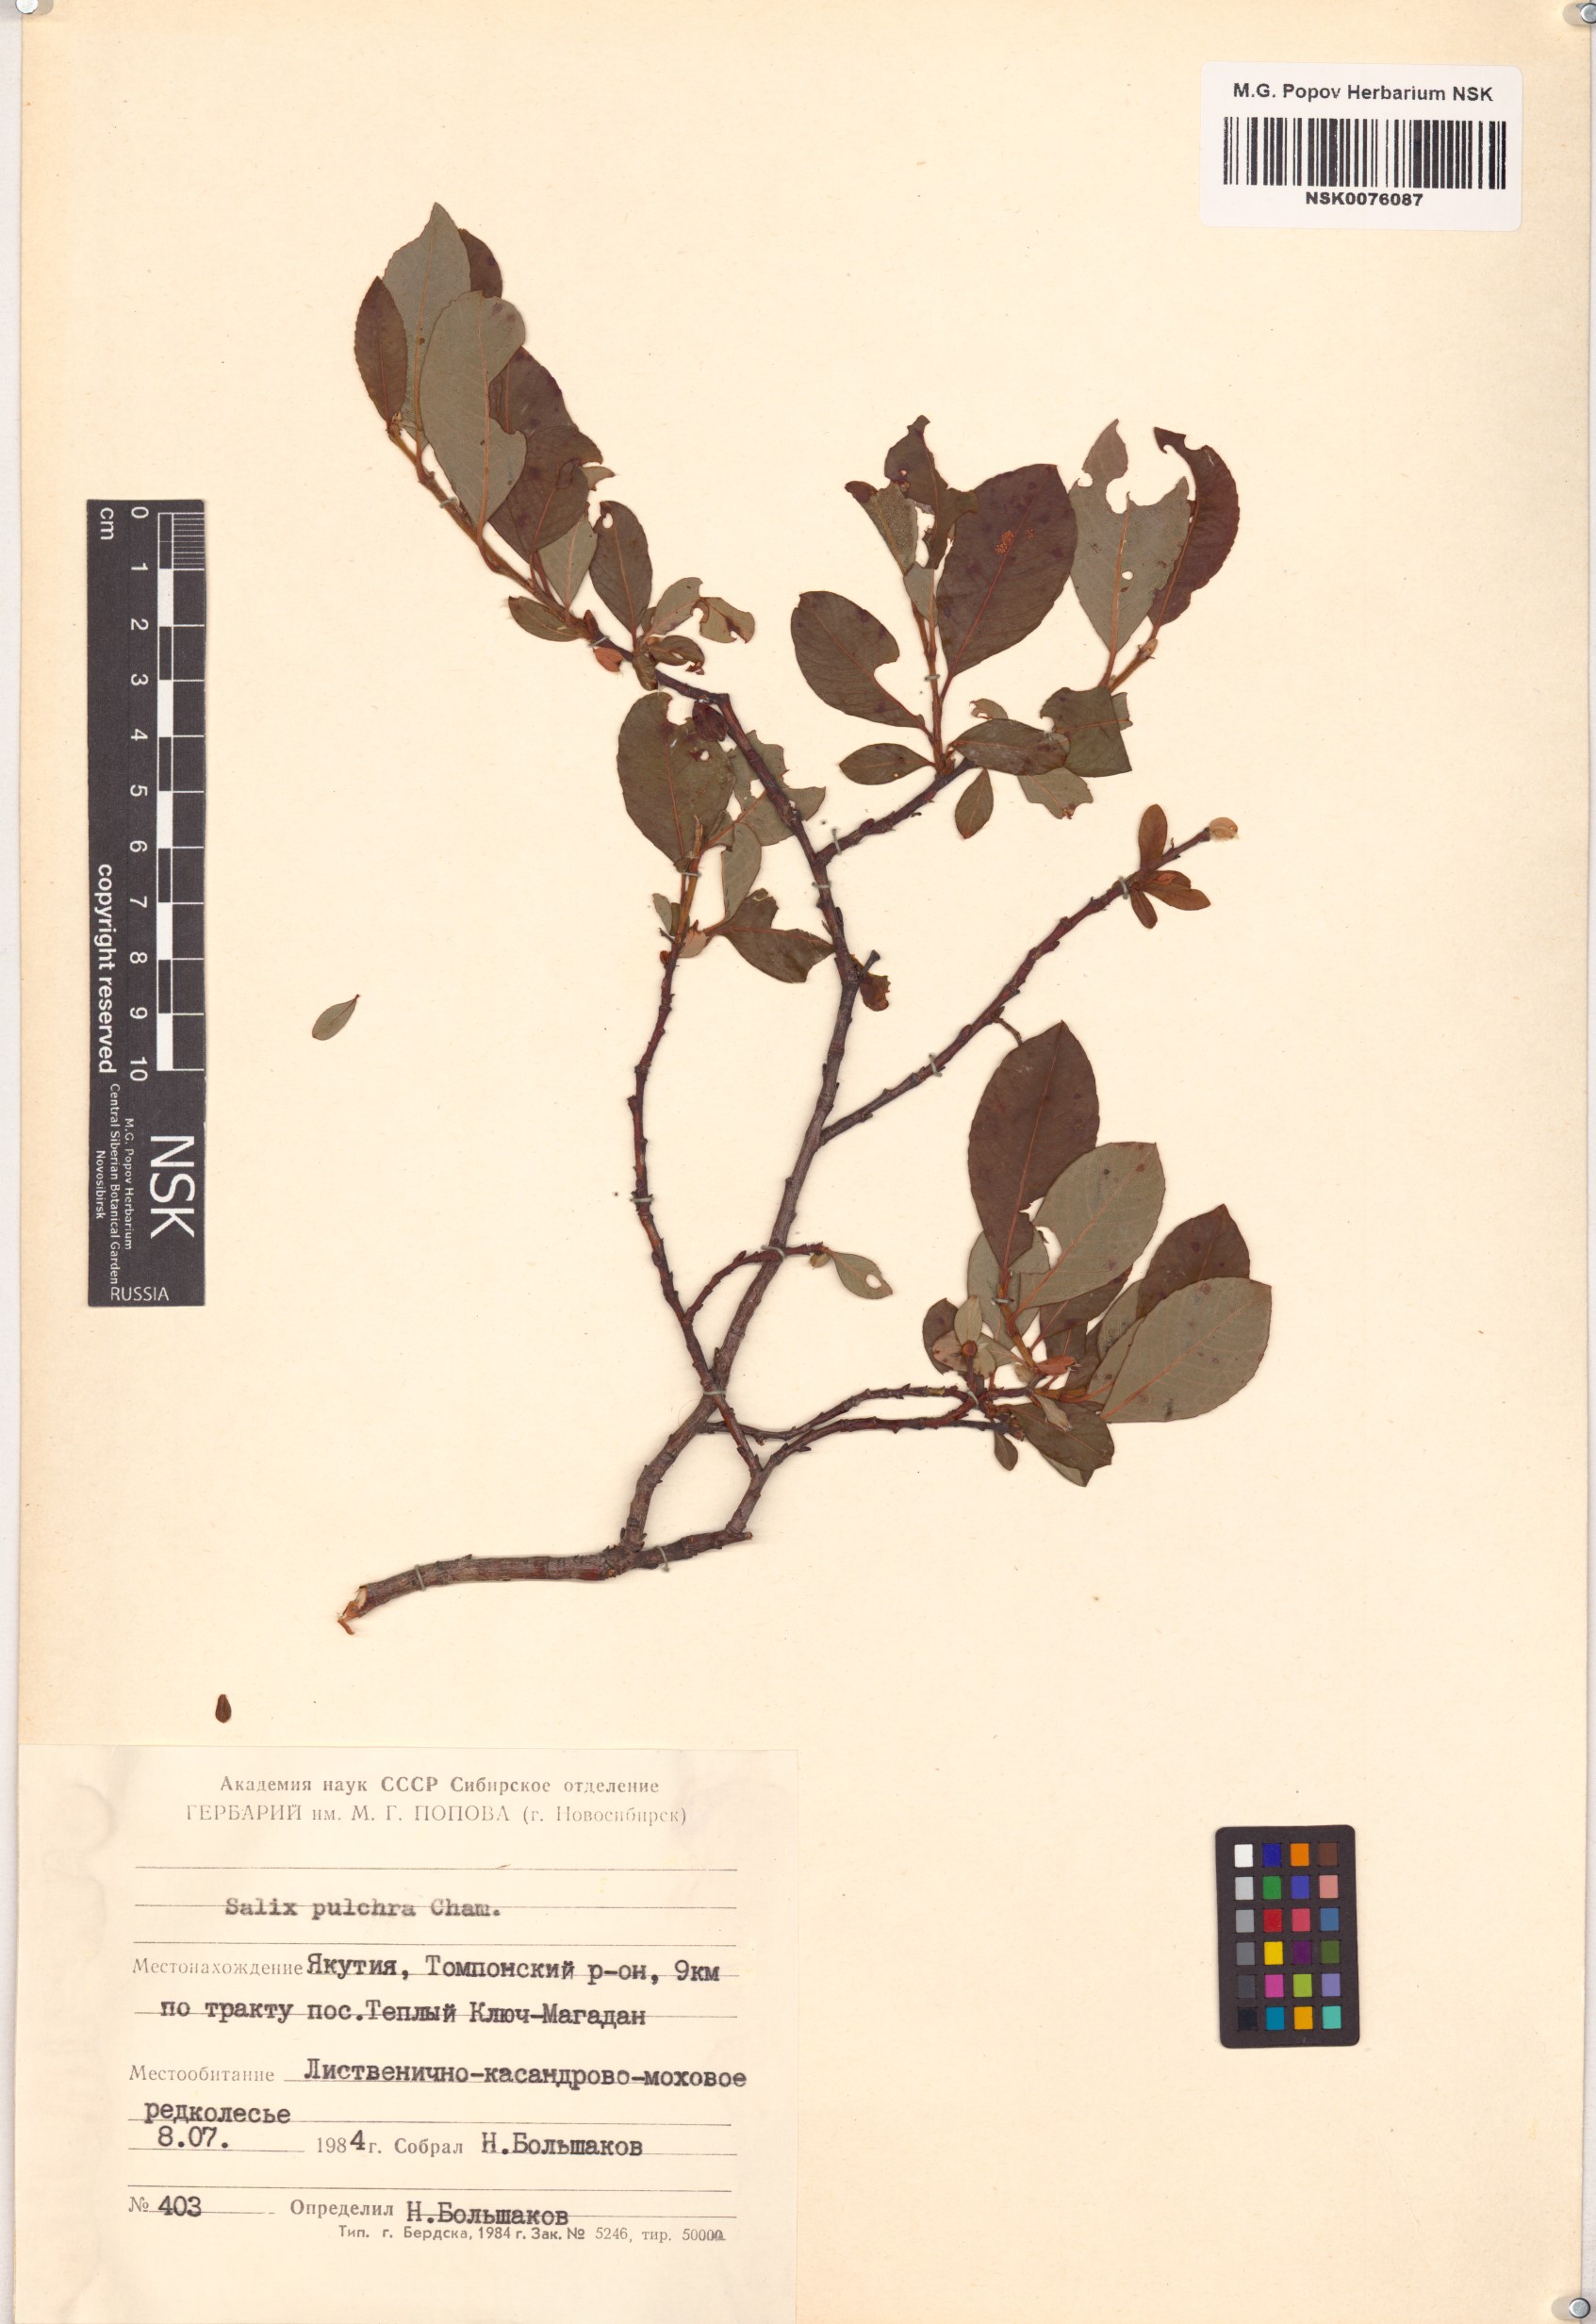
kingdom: Plantae
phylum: Tracheophyta
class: Magnoliopsida
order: Malpighiales
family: Salicaceae
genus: Salix
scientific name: Salix pulchra
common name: Diamond-leaved willow
